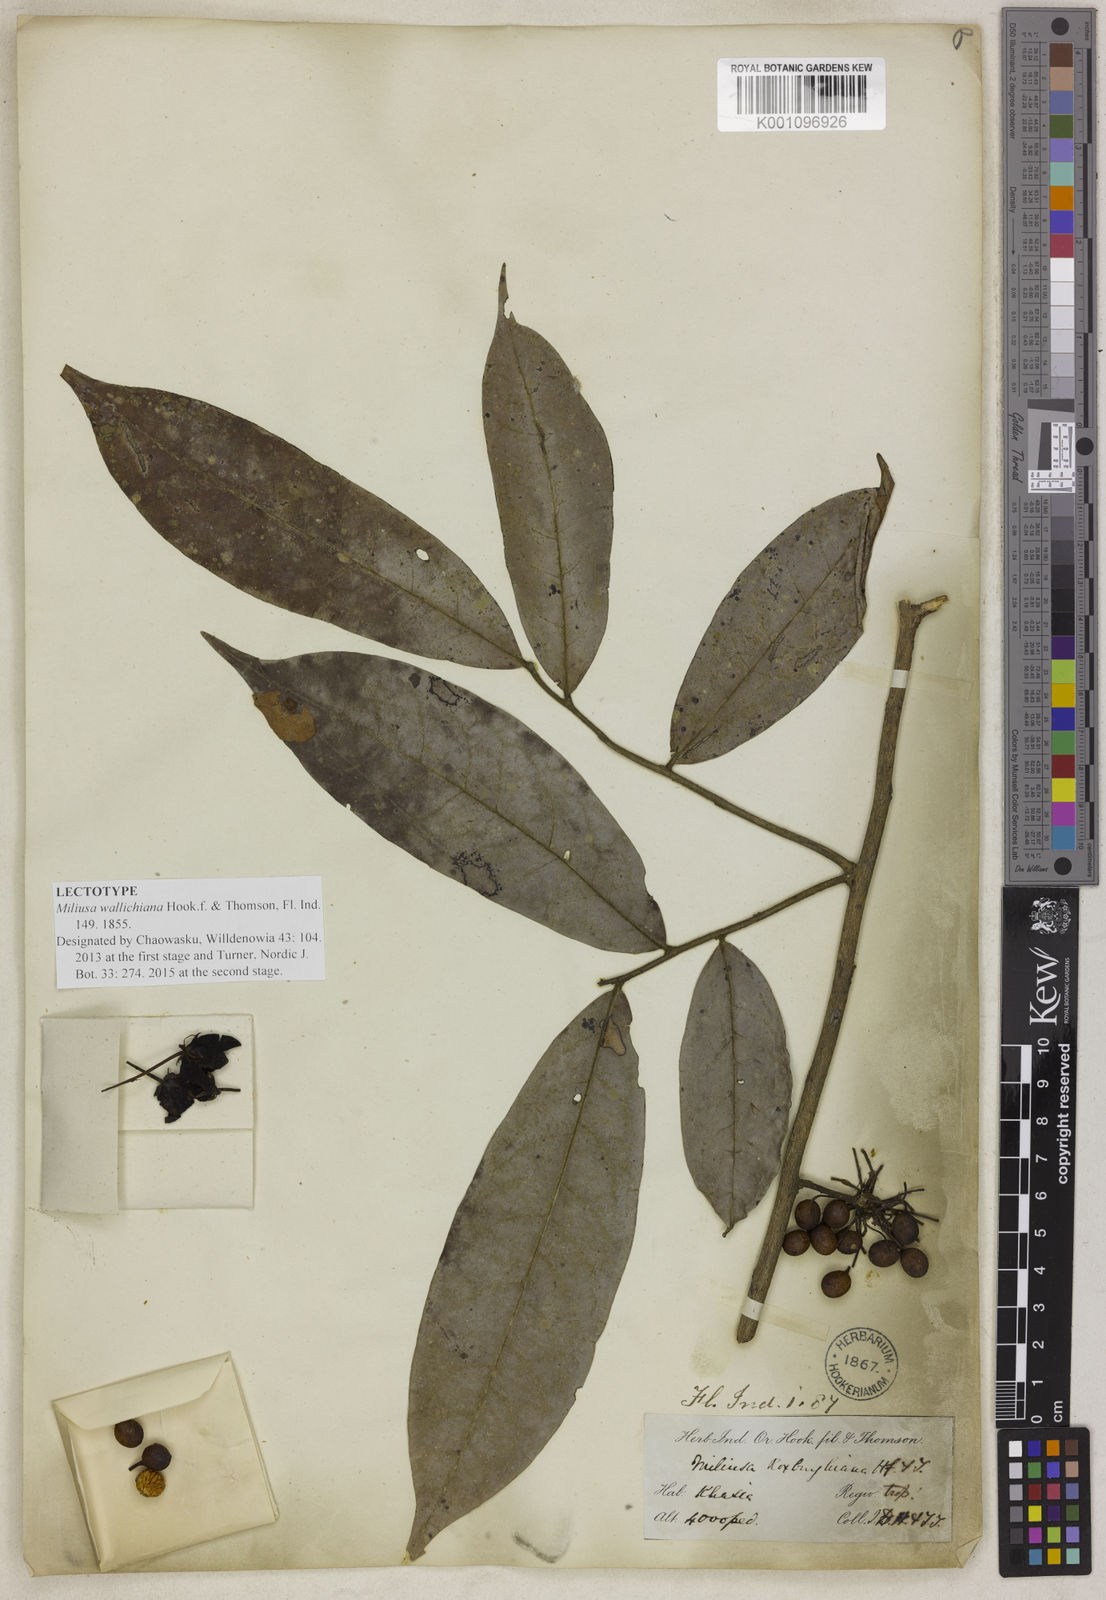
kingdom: Plantae
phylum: Tracheophyta
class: Magnoliopsida
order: Magnoliales
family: Annonaceae
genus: Miliusa
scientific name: Miliusa
